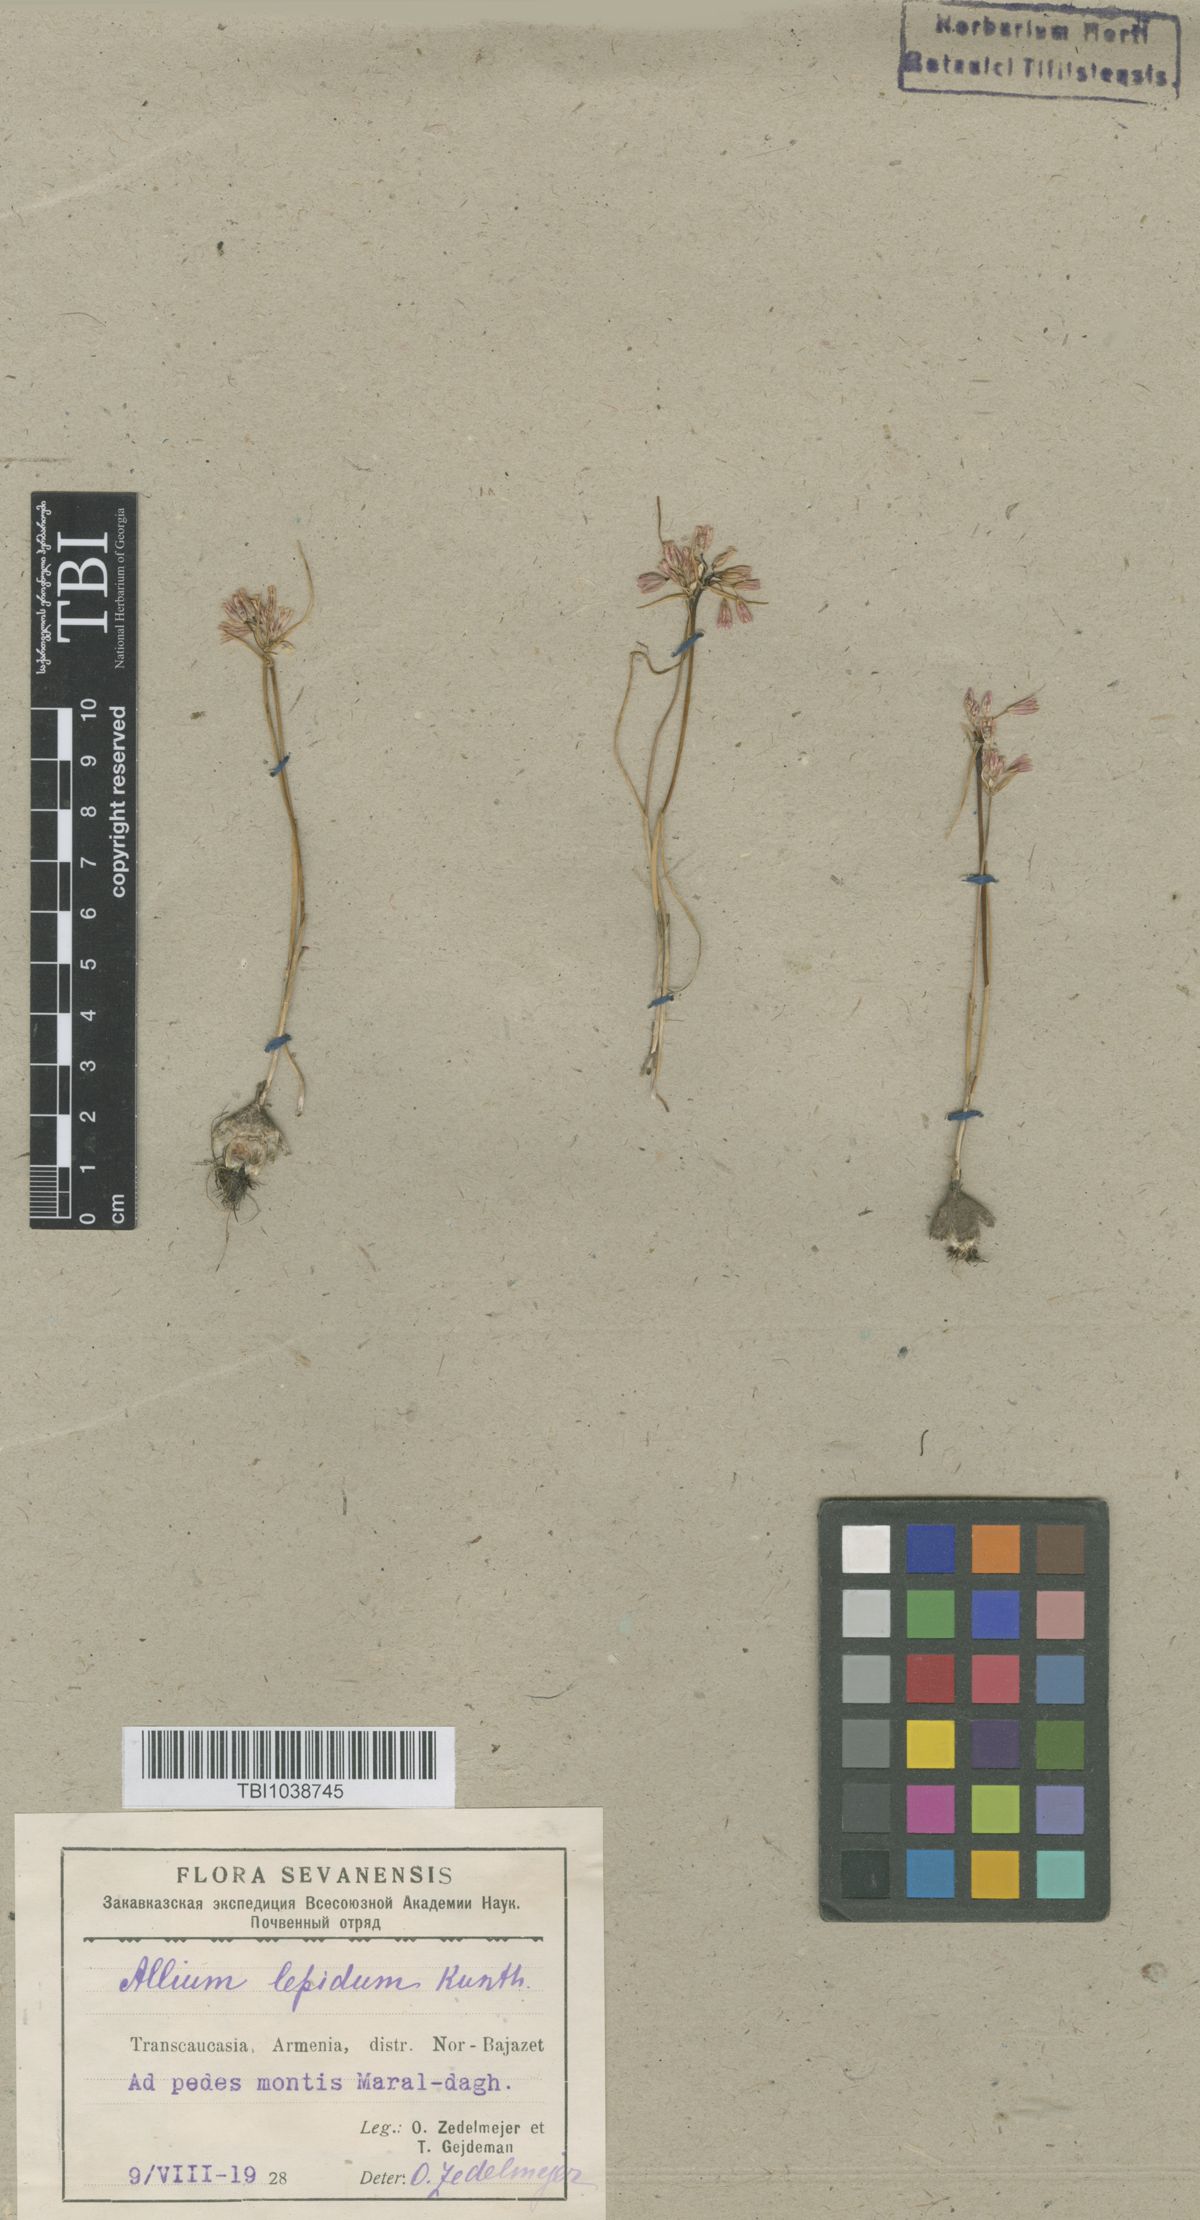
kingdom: Plantae
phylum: Tracheophyta
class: Liliopsida
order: Asparagales
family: Amaryllidaceae
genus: Allium
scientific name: Allium kunthianum
